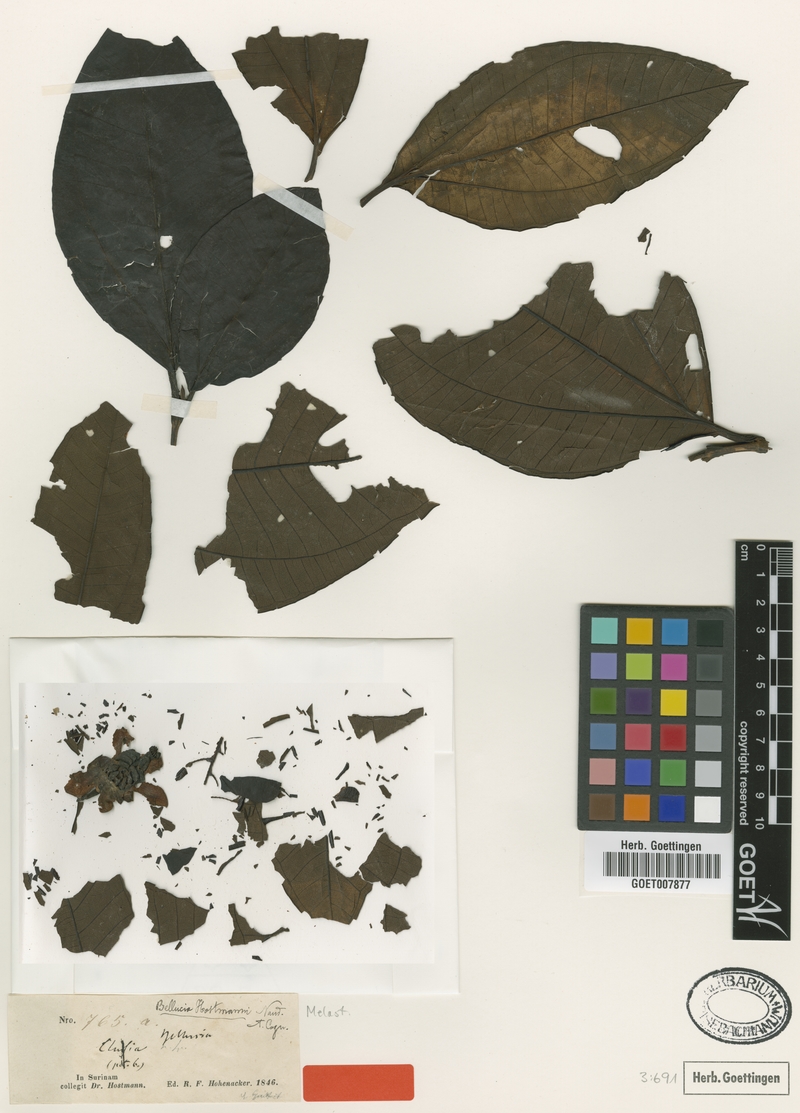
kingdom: Plantae
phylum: Tracheophyta
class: Magnoliopsida
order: Myrtales
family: Melastomataceae
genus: Bellucia
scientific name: Bellucia grossularioides
